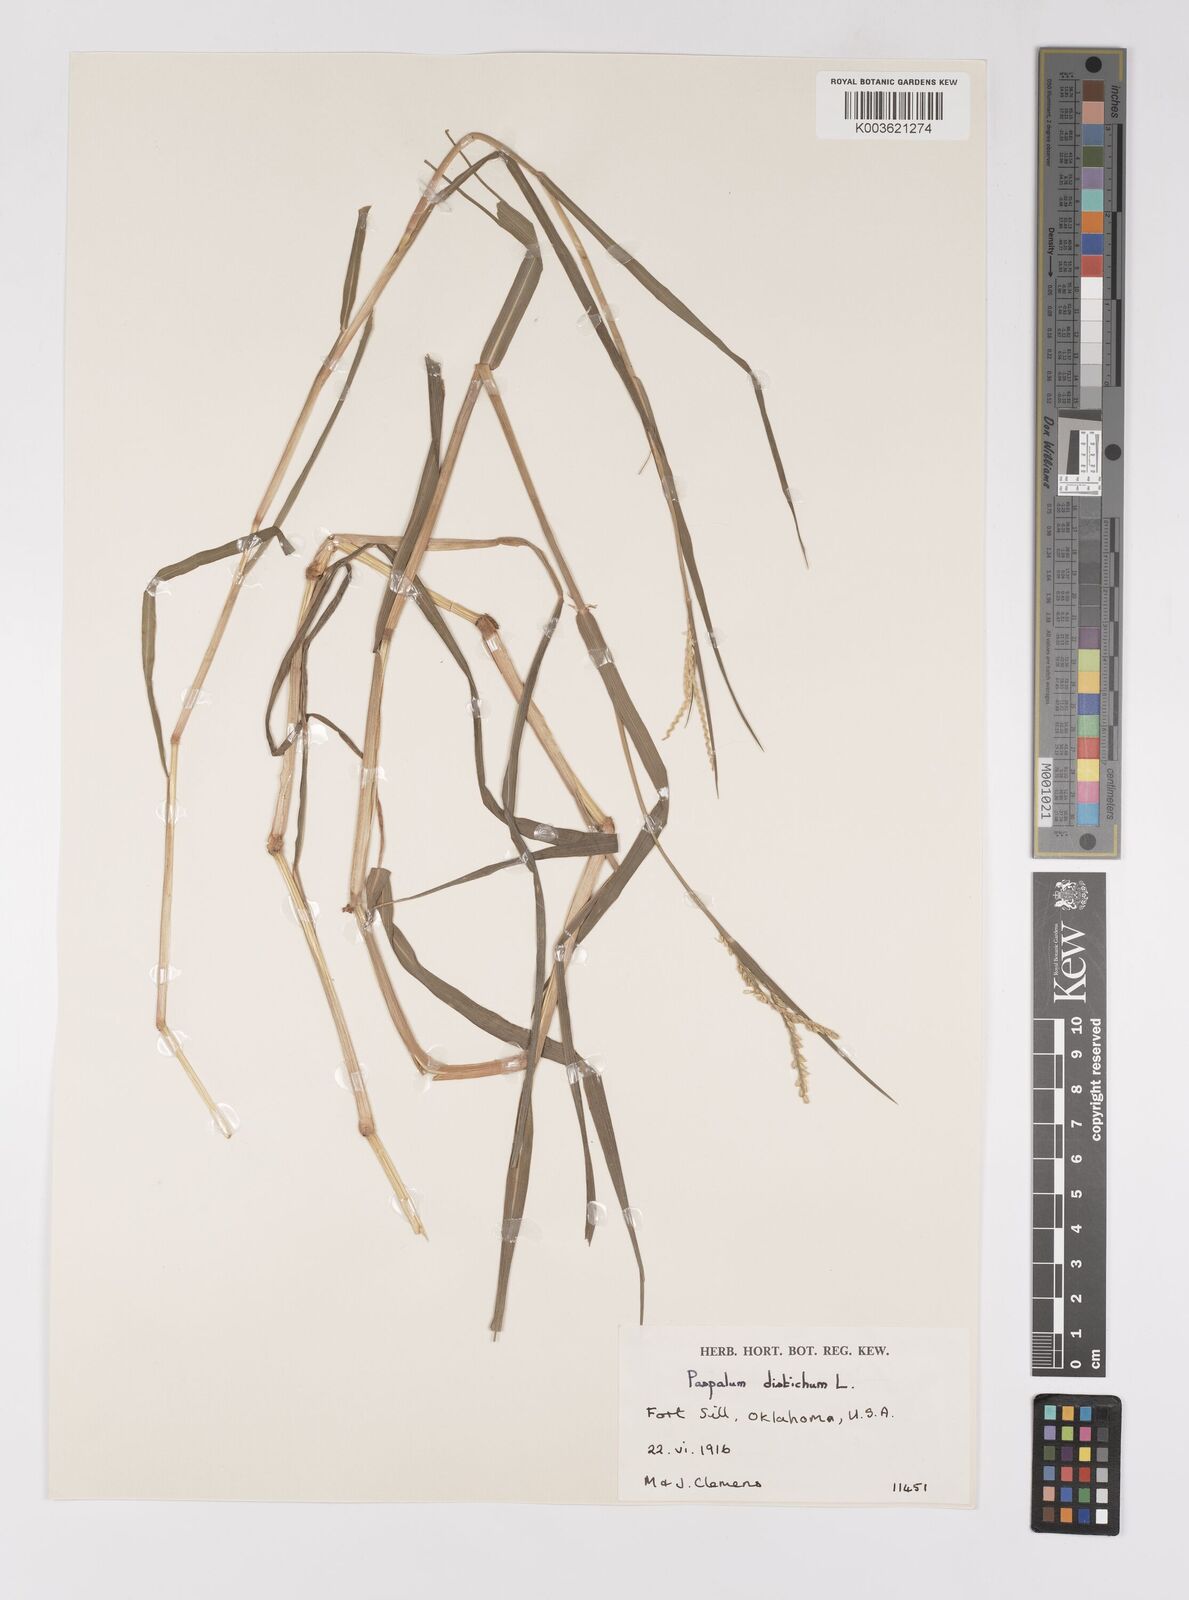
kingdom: Plantae
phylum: Tracheophyta
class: Liliopsida
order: Poales
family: Poaceae
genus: Paspalum
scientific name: Paspalum distichum
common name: Knotgrass
